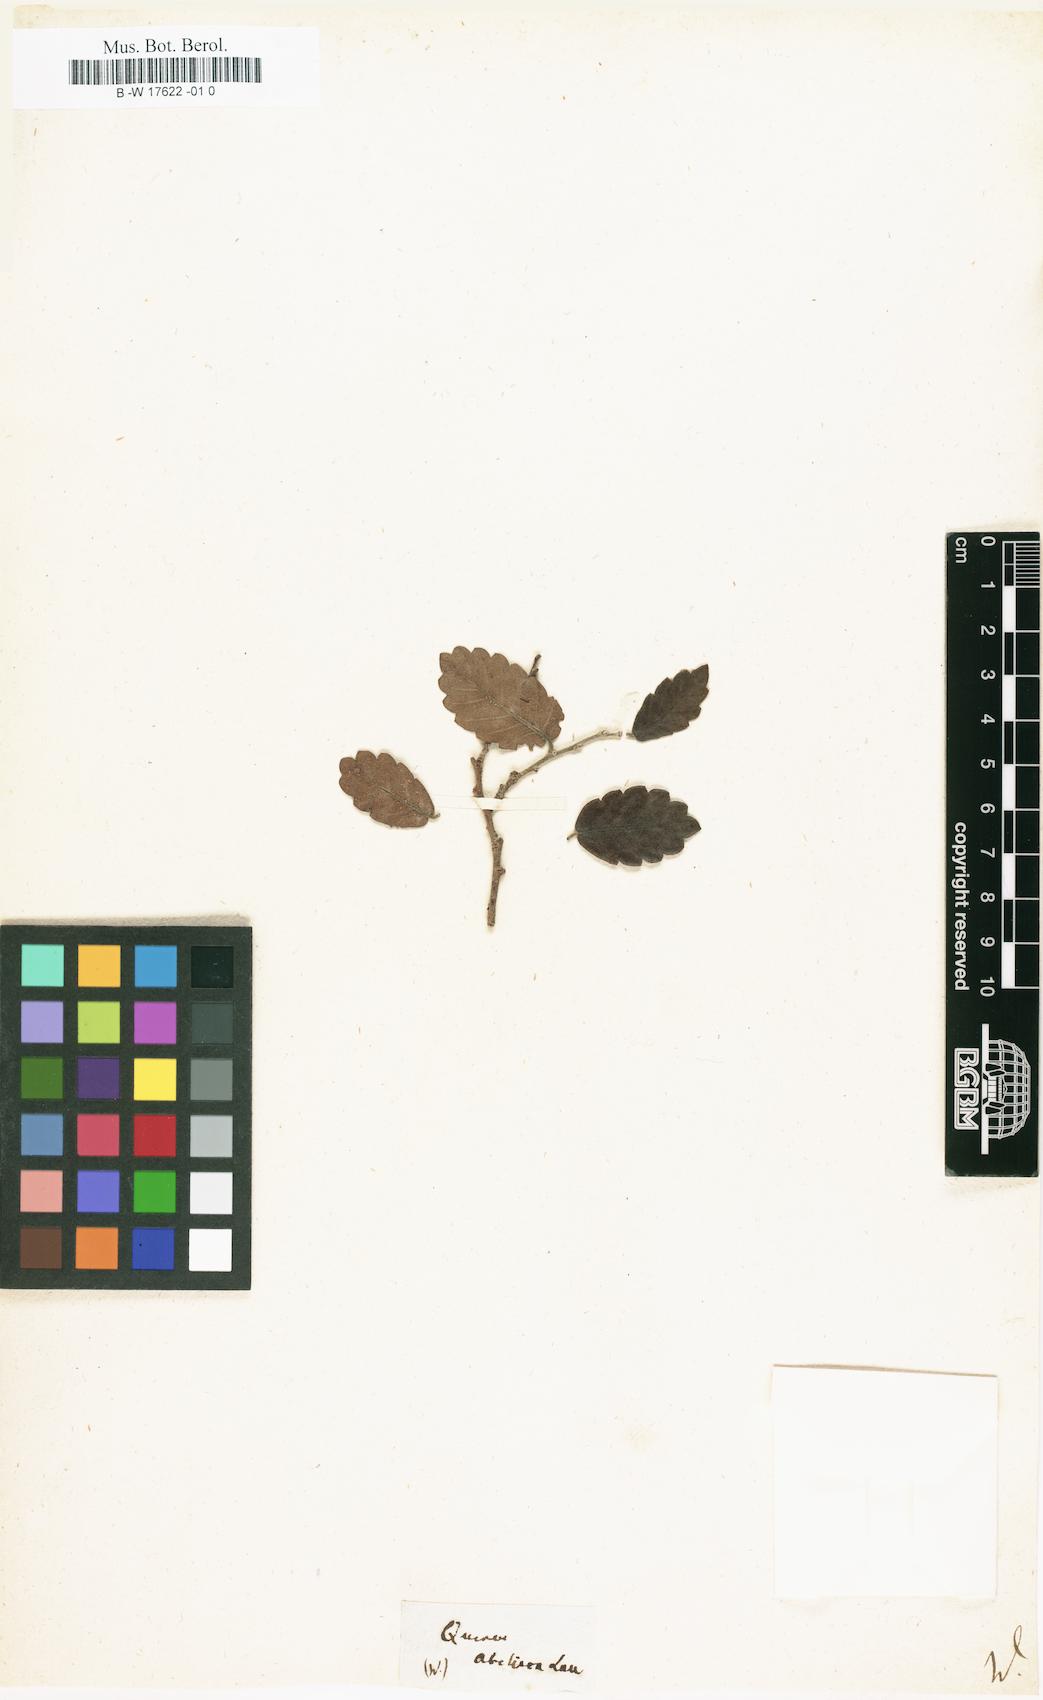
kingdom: Plantae
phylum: Tracheophyta
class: Magnoliopsida
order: Rosales
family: Ulmaceae
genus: Zelkova
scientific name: Zelkova abelicea
